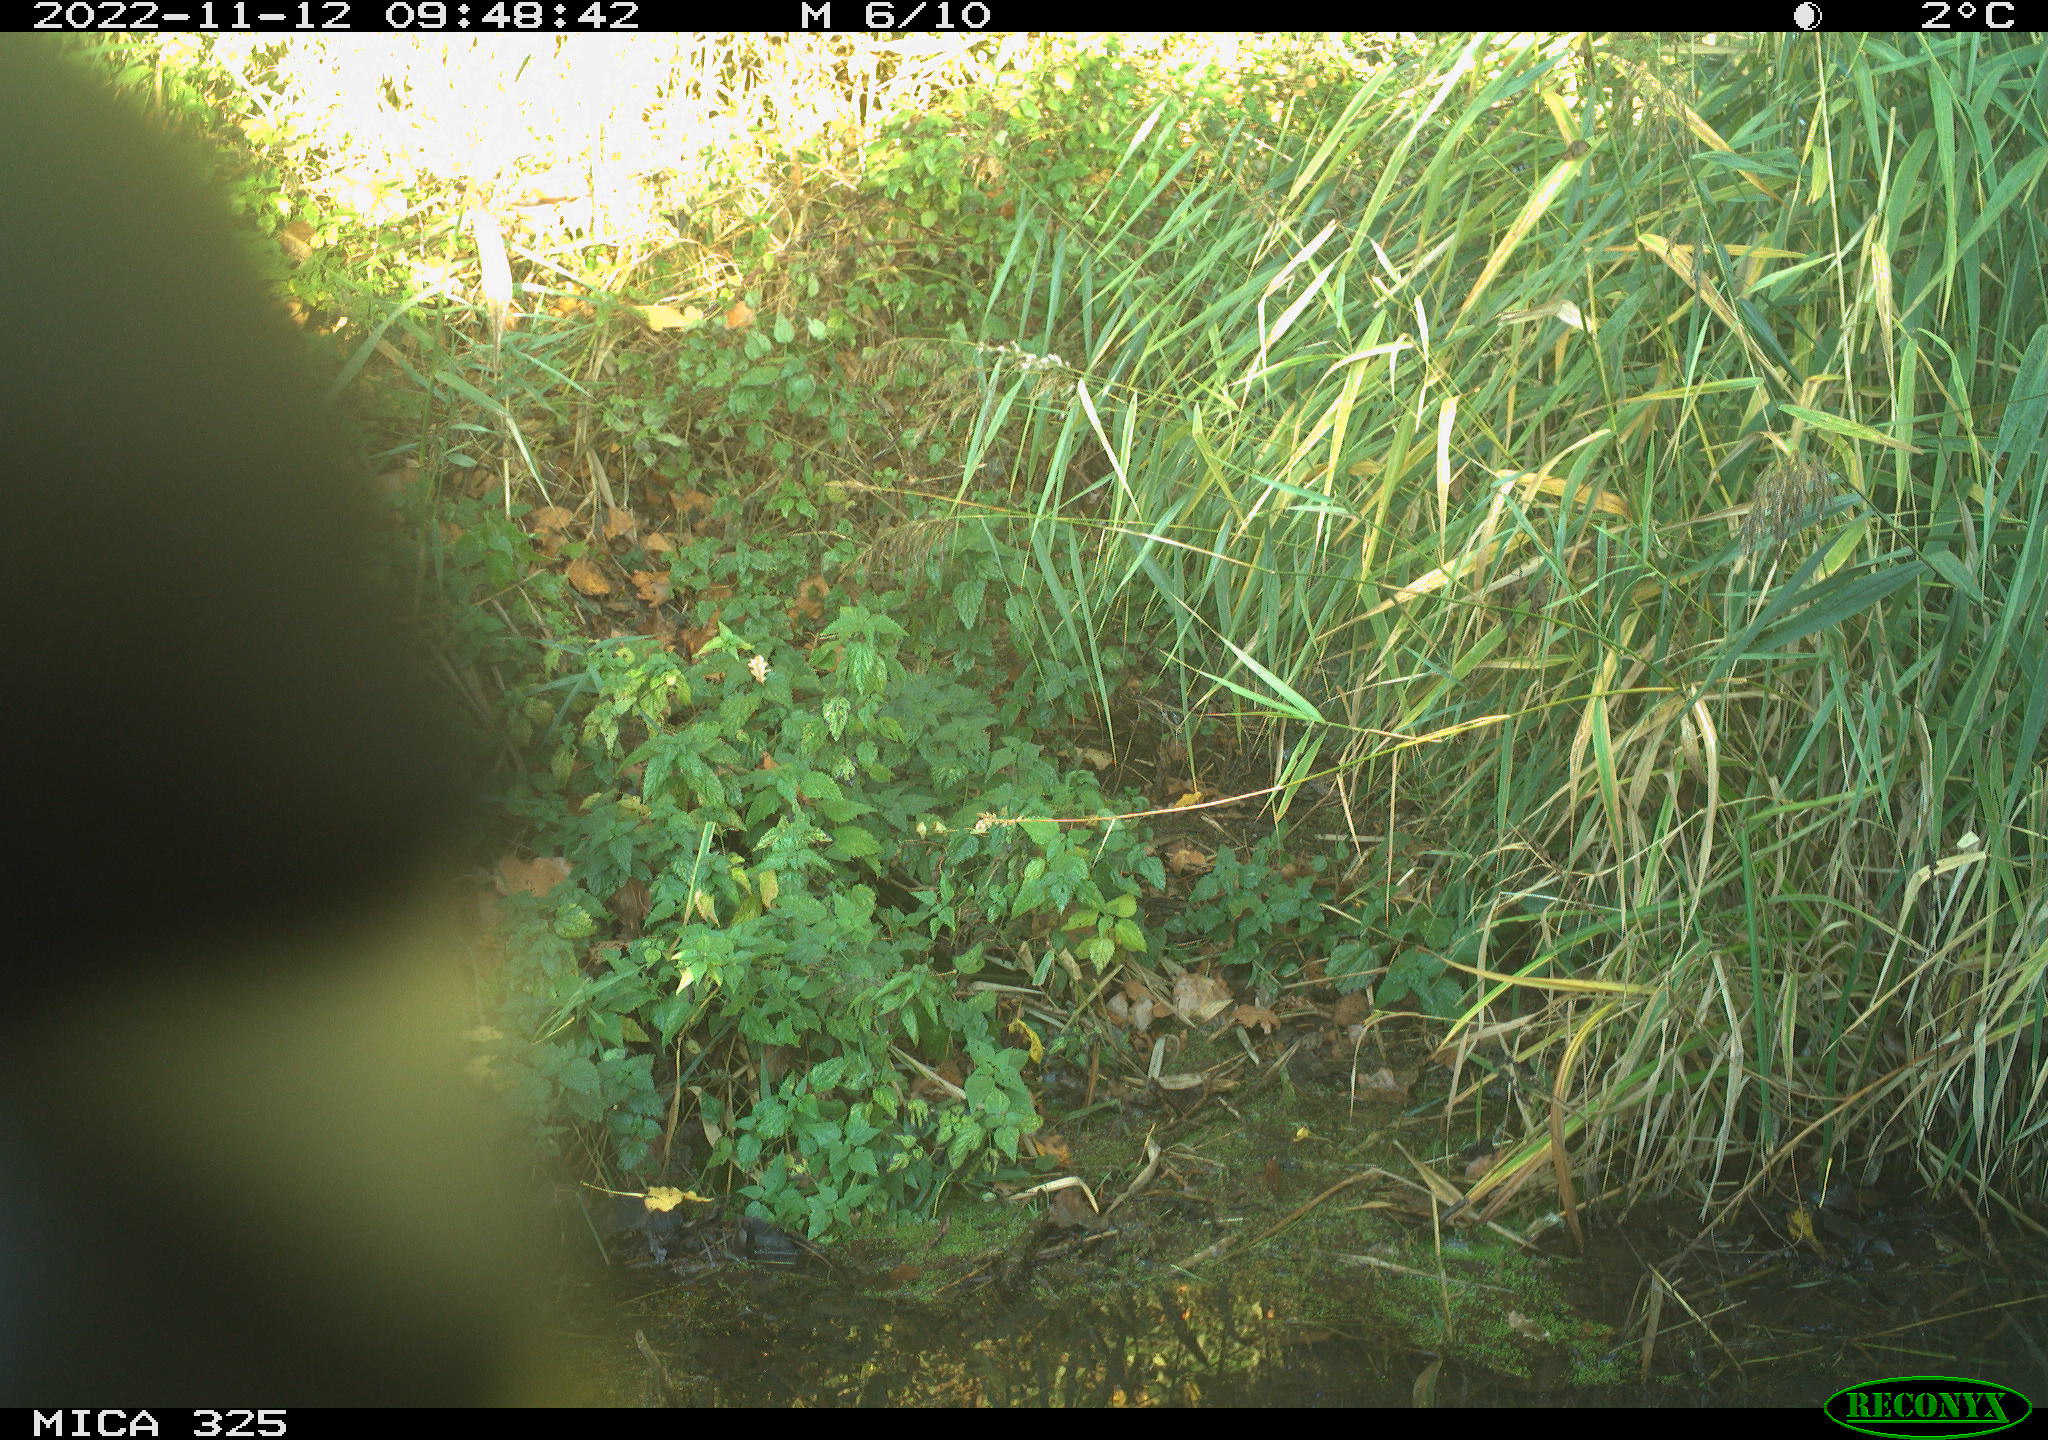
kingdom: Animalia
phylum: Chordata
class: Aves
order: Passeriformes
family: Paridae
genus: Parus
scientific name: Parus major
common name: Great tit
